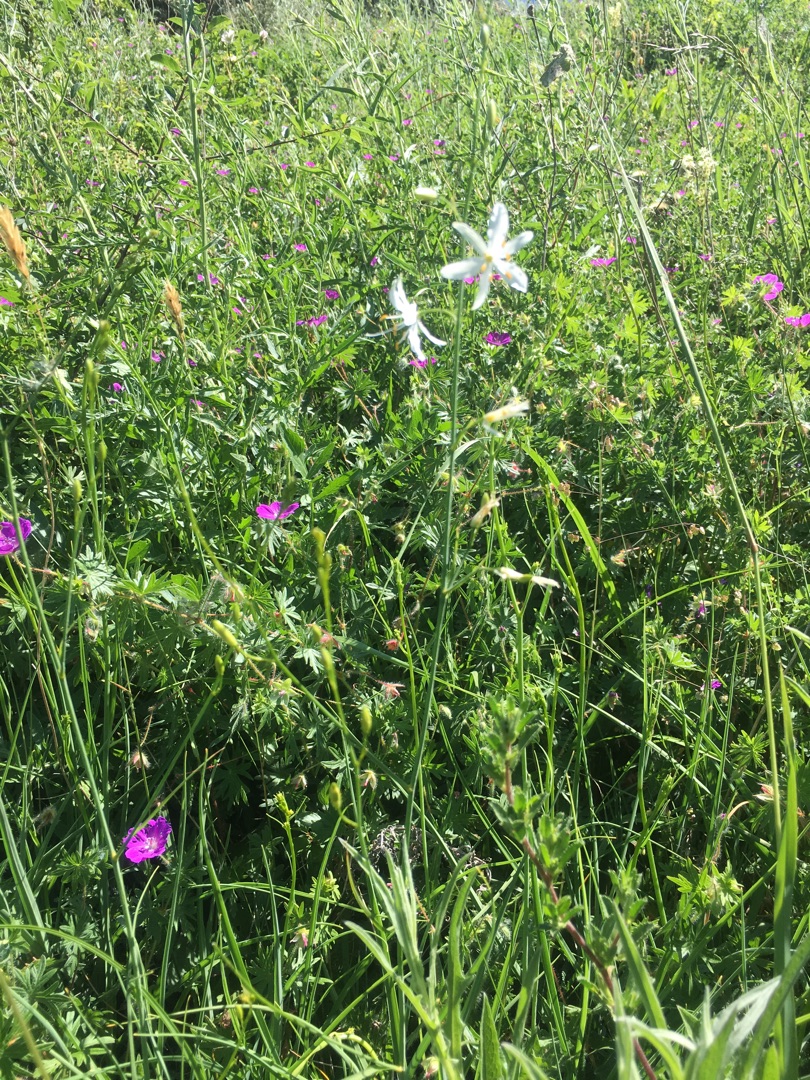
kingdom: Plantae
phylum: Tracheophyta
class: Liliopsida
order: Asparagales
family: Asparagaceae
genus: Anthericum
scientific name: Anthericum ramosum
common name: Grenet edderkopurt
